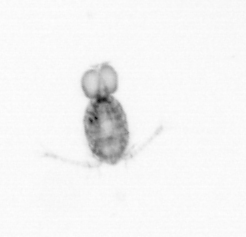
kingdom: Animalia
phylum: Arthropoda
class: Copepoda
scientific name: Copepoda
